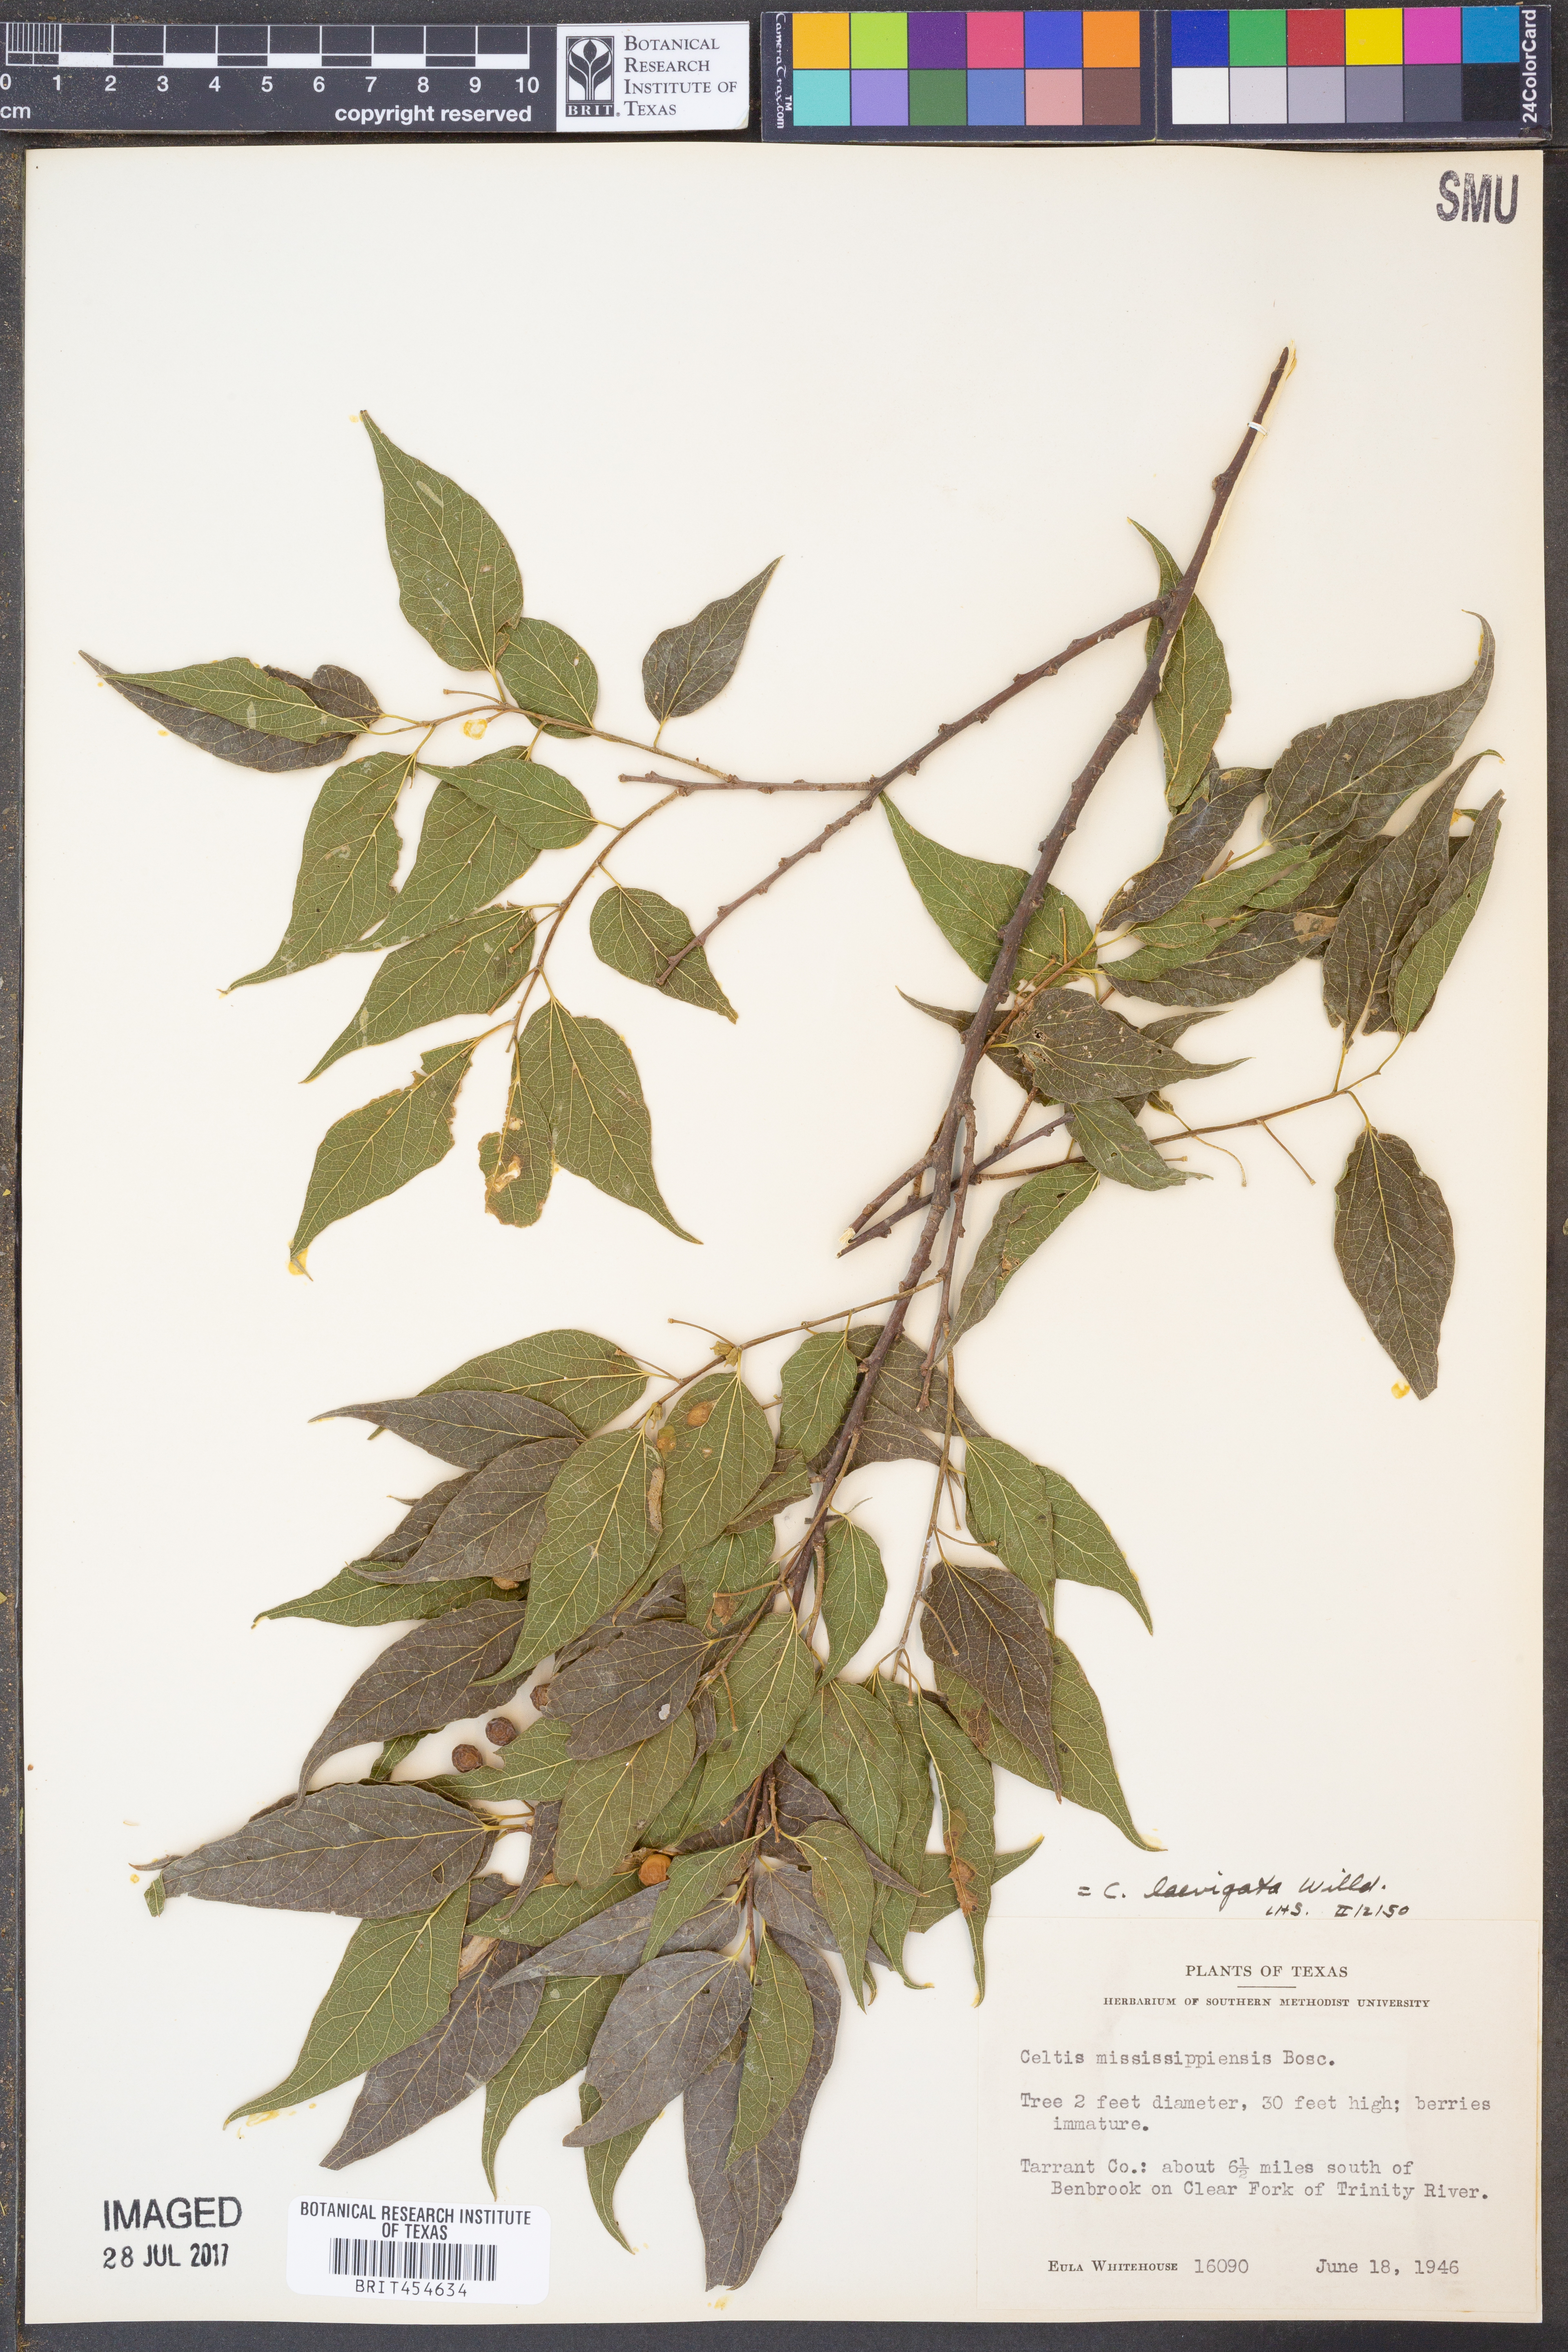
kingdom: Plantae
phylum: Tracheophyta
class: Magnoliopsida
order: Rosales
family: Cannabaceae
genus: Celtis
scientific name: Celtis
